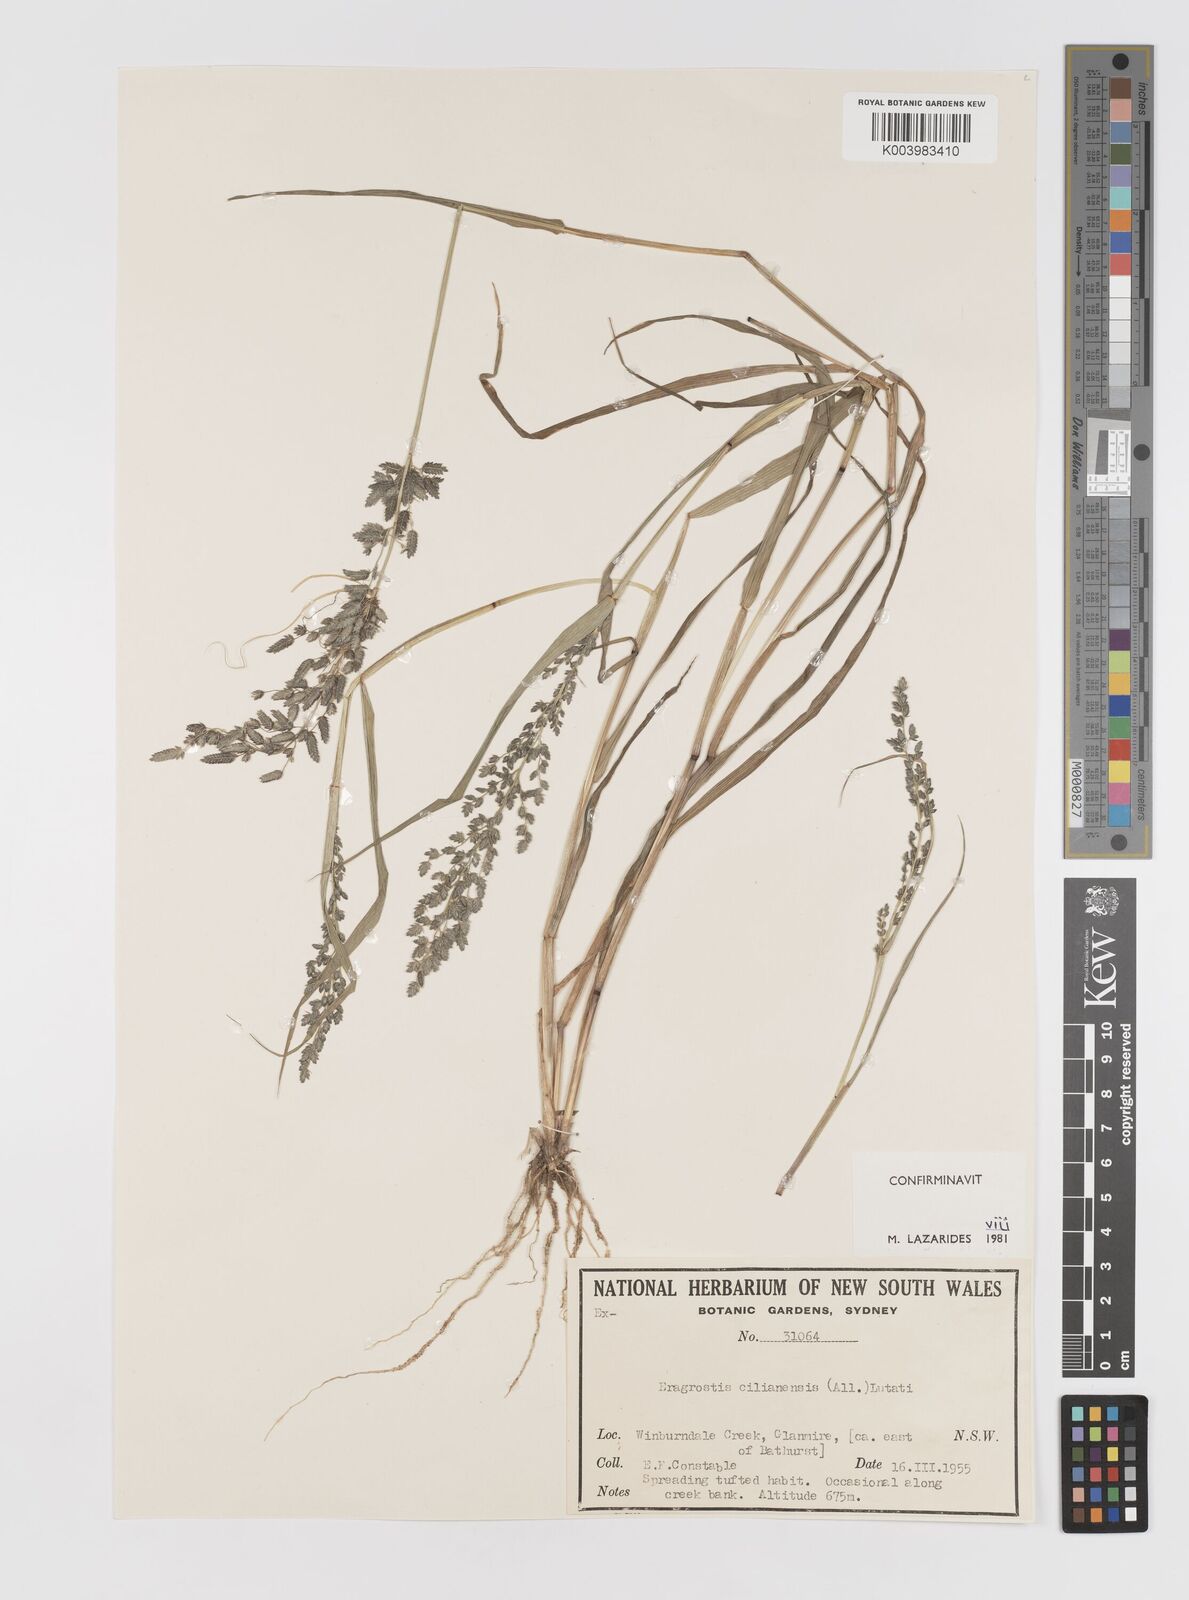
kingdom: Plantae
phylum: Tracheophyta
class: Liliopsida
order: Poales
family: Poaceae
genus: Eragrostis
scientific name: Eragrostis cilianensis
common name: Stinkgrass
